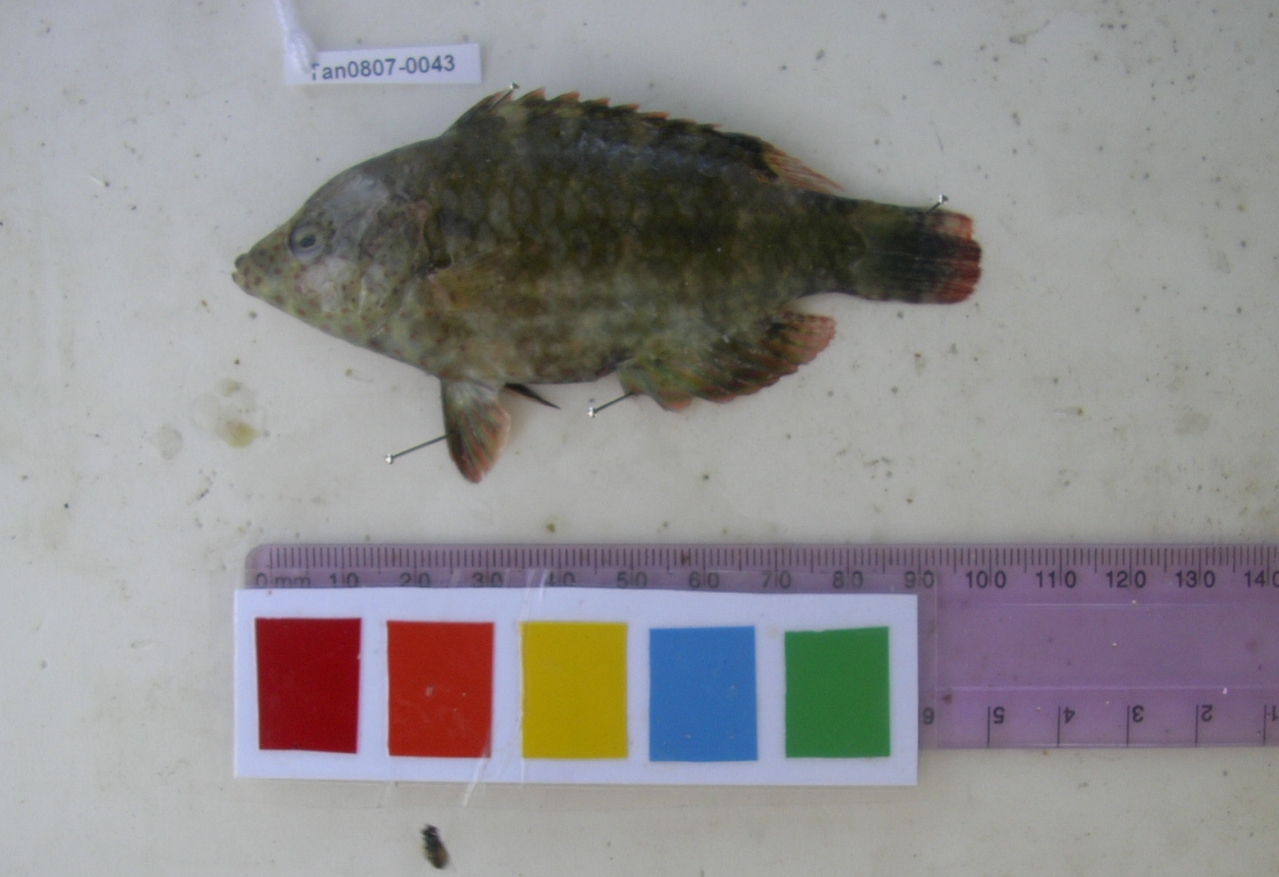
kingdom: Animalia
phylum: Chordata
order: Perciformes
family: Labridae
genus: Cheilinus
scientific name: Cheilinus trilobatus
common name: Tripletail maori wrasse
